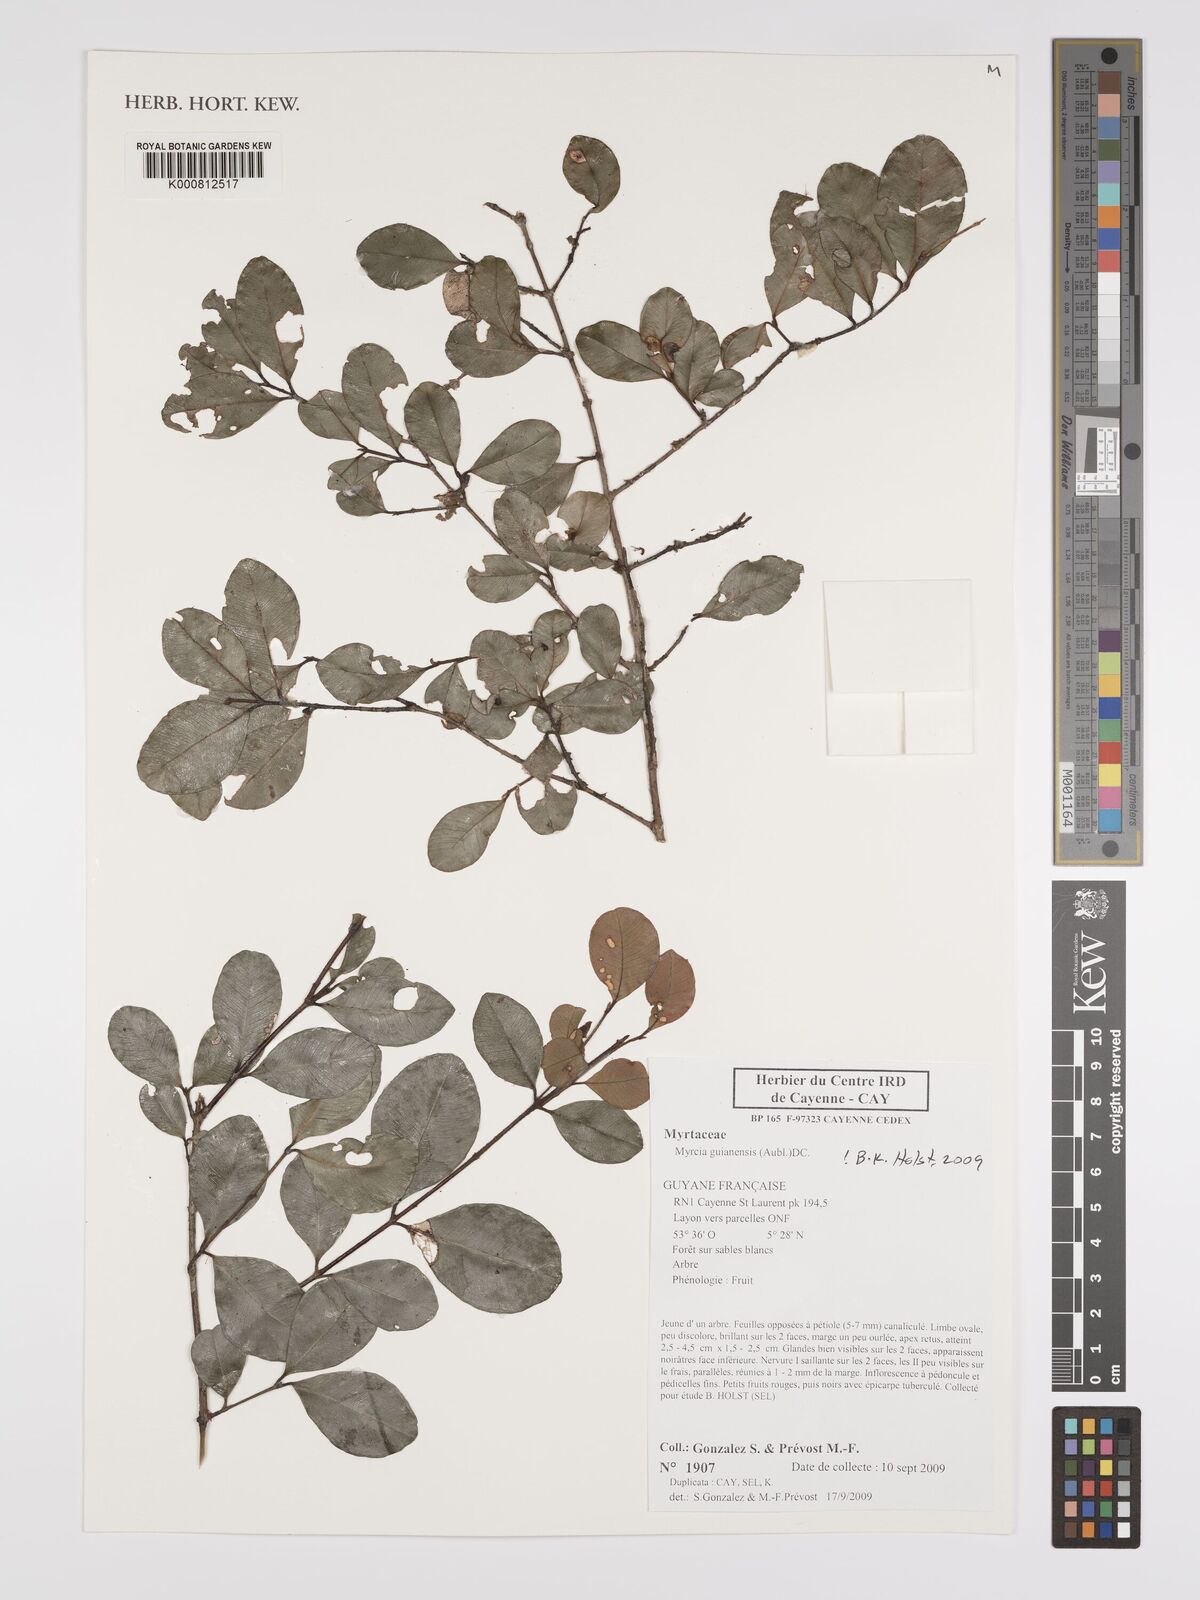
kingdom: Plantae
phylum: Tracheophyta
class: Magnoliopsida
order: Myrtales
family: Myrtaceae
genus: Myrcia
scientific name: Myrcia guianensis
